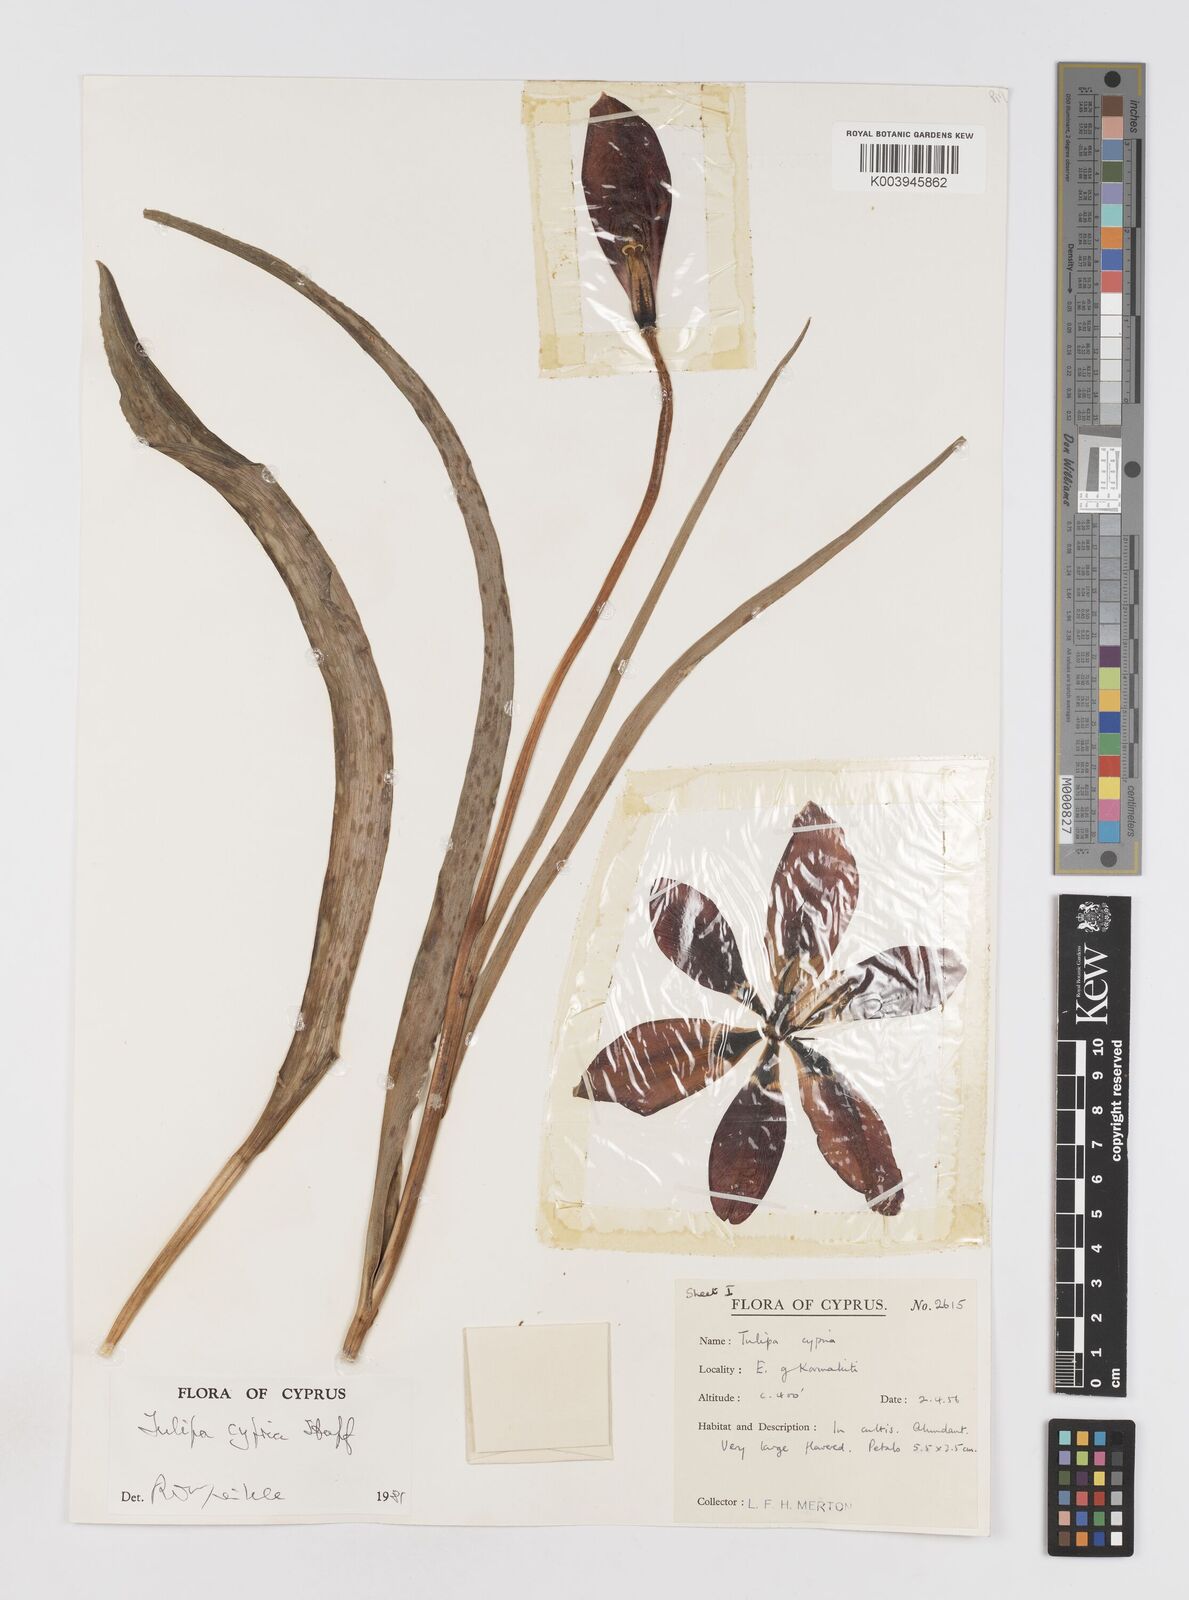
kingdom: Plantae
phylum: Tracheophyta
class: Liliopsida
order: Liliales
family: Liliaceae
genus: Tulipa
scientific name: Tulipa agenensis
